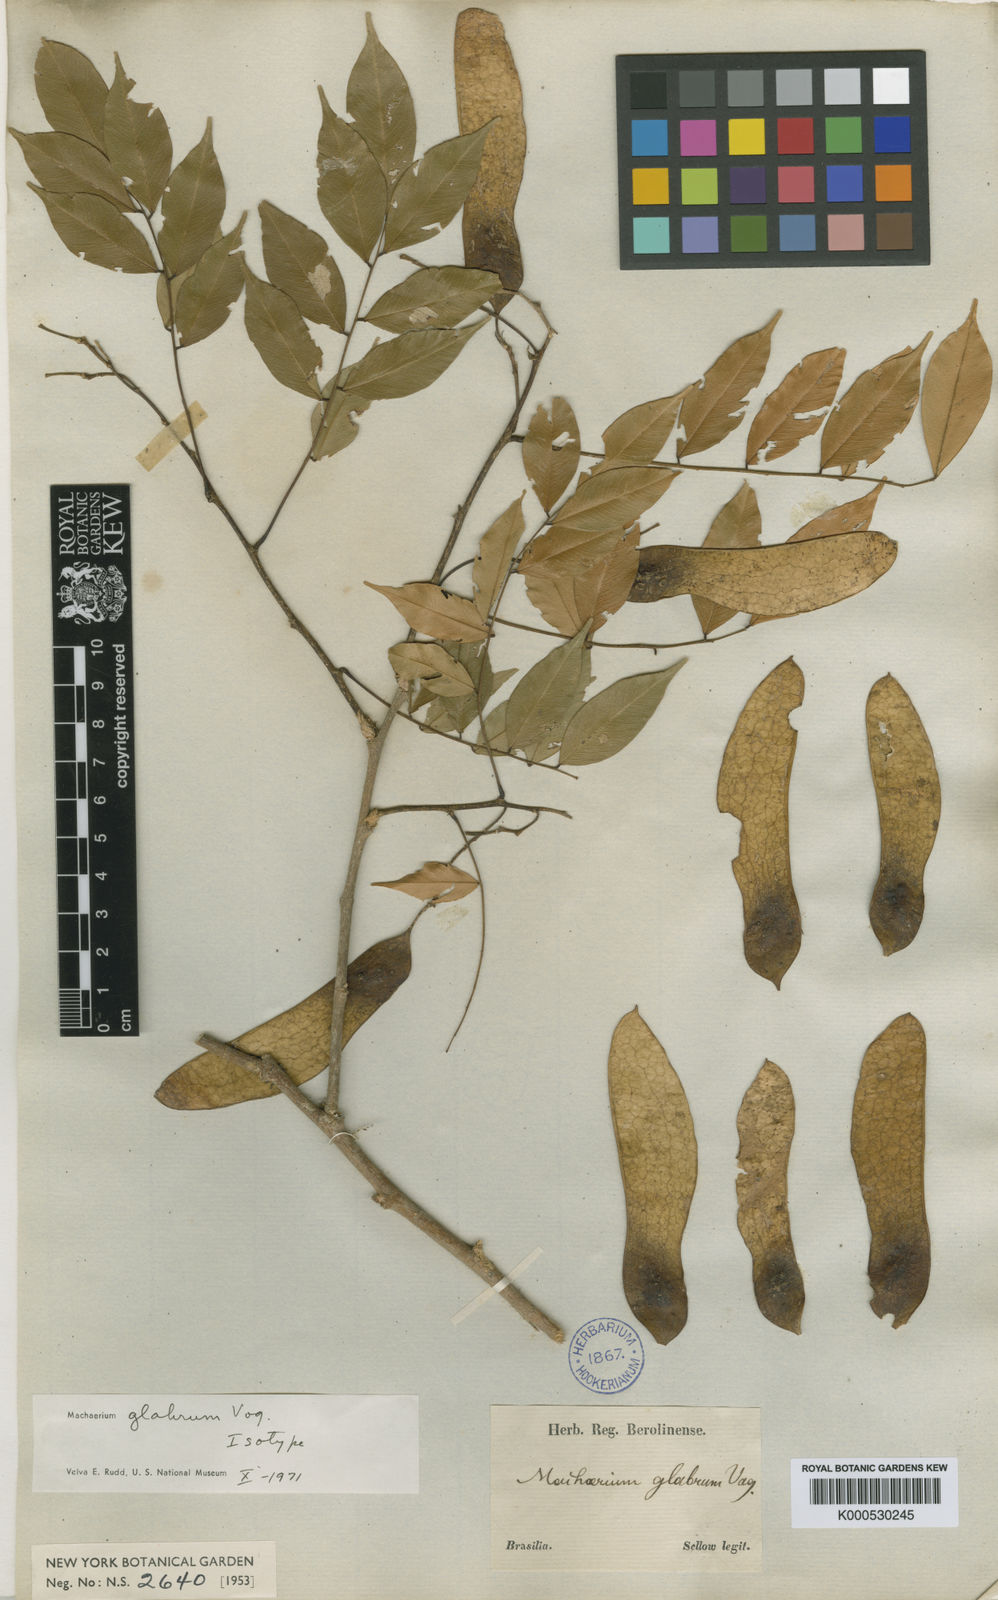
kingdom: Plantae
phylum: Tracheophyta
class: Magnoliopsida
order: Fabales
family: Fabaceae
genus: Machaerium
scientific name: Machaerium glabrum
